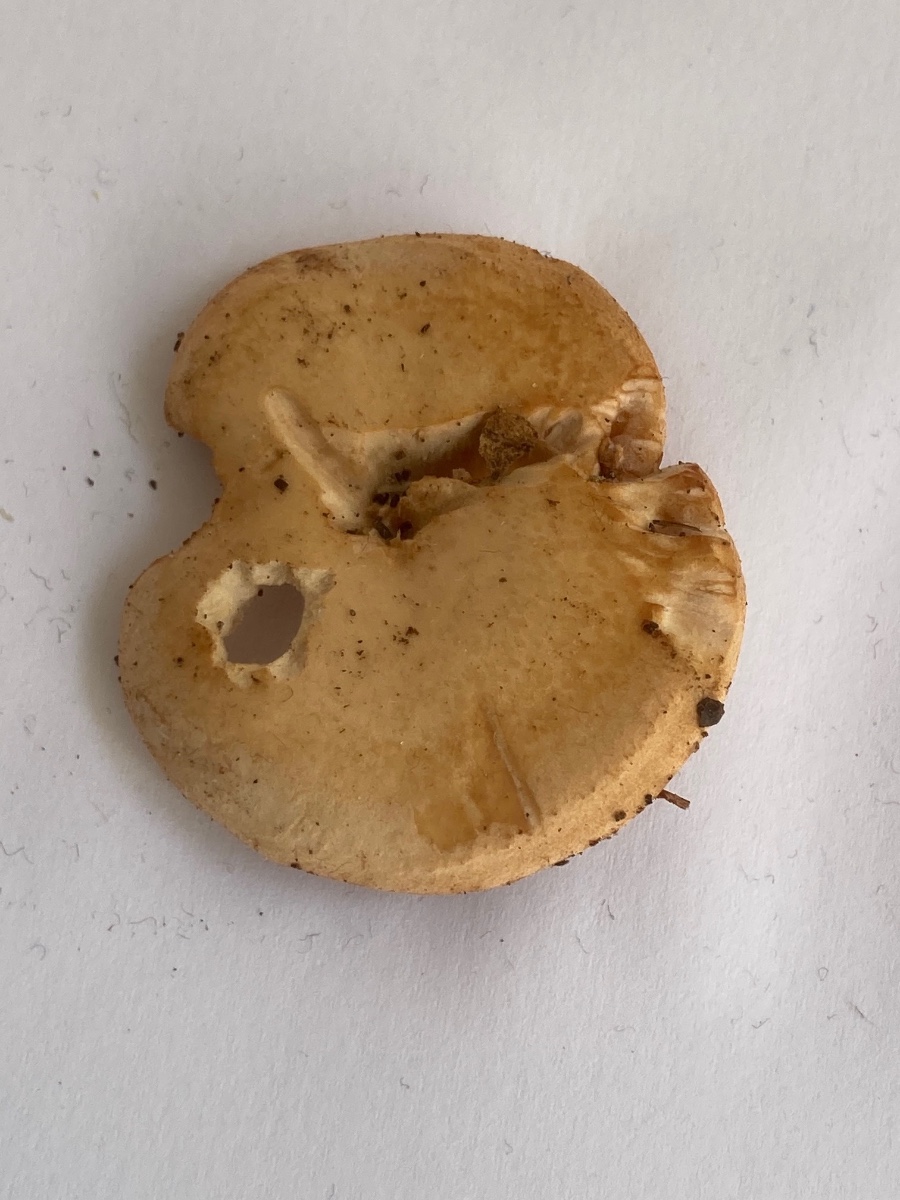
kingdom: Fungi
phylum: Basidiomycota
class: Agaricomycetes
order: Agaricales
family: Tricholomataceae
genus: Paralepista
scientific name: Paralepista gilva
